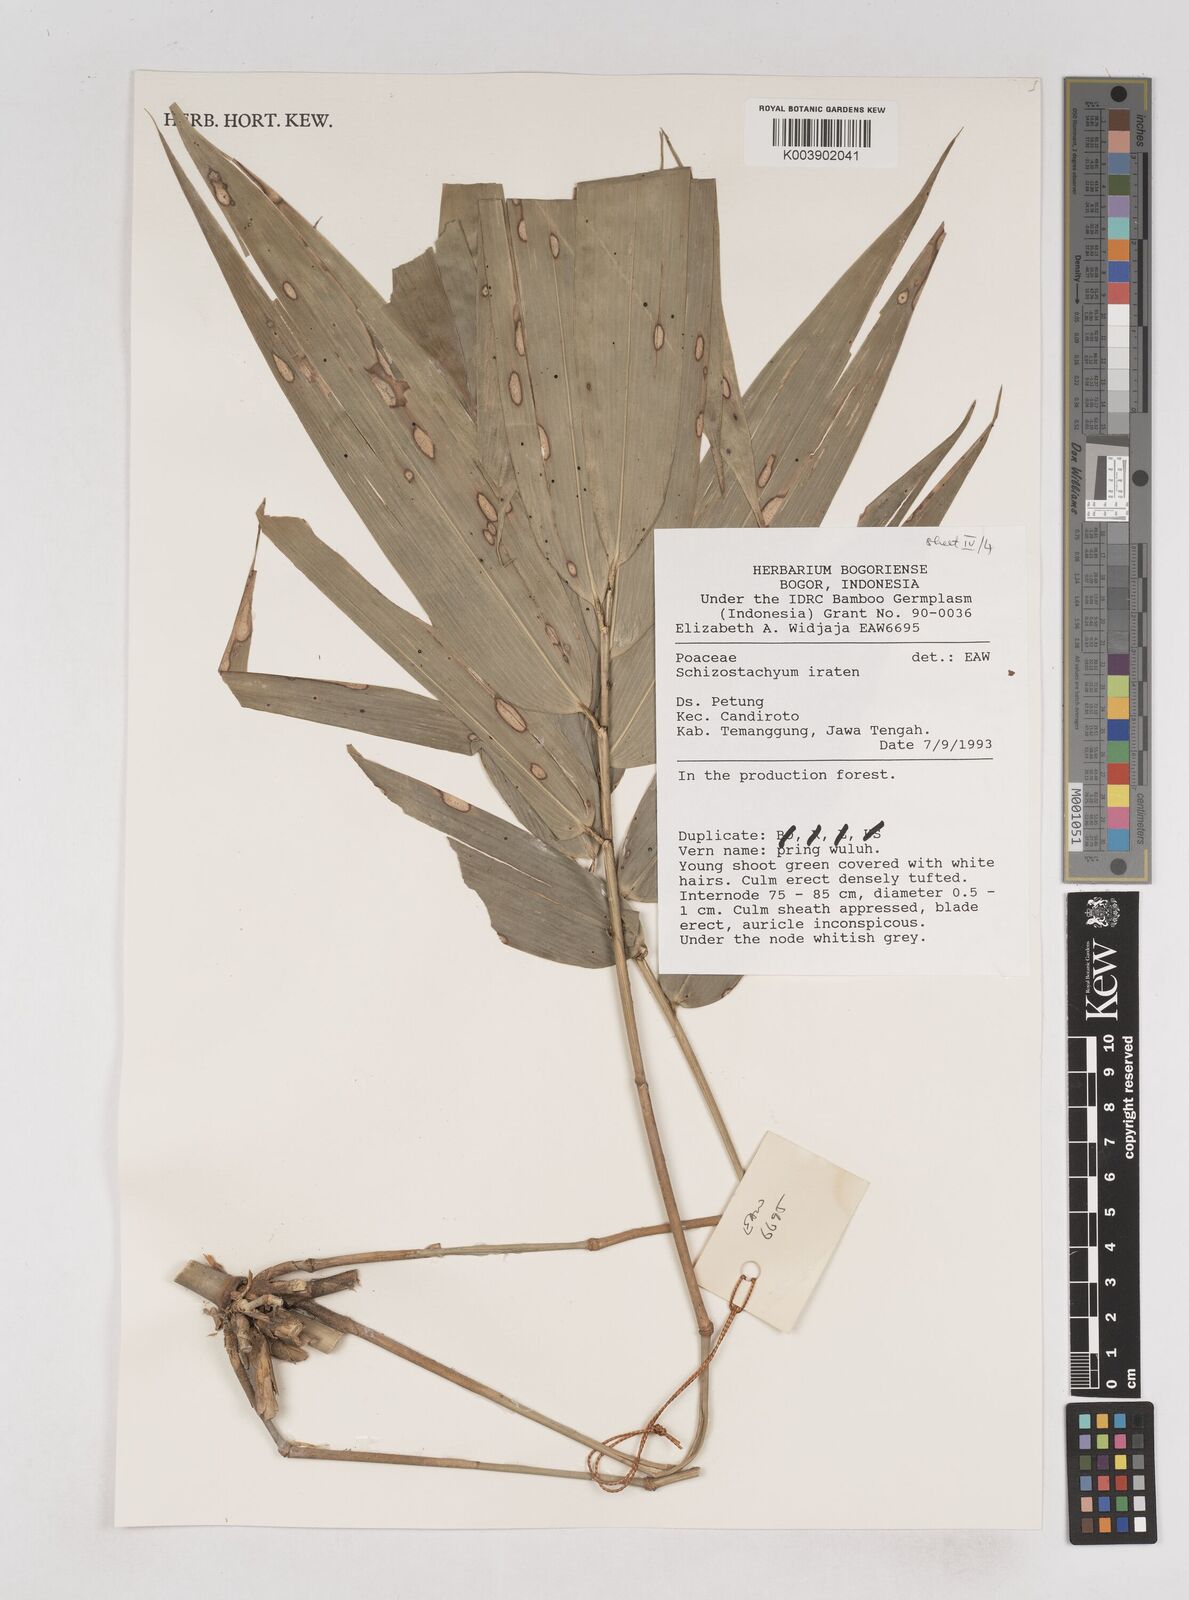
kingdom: Plantae
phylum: Tracheophyta
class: Liliopsida
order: Poales
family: Poaceae
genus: Schizostachyum
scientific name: Schizostachyum iraten
